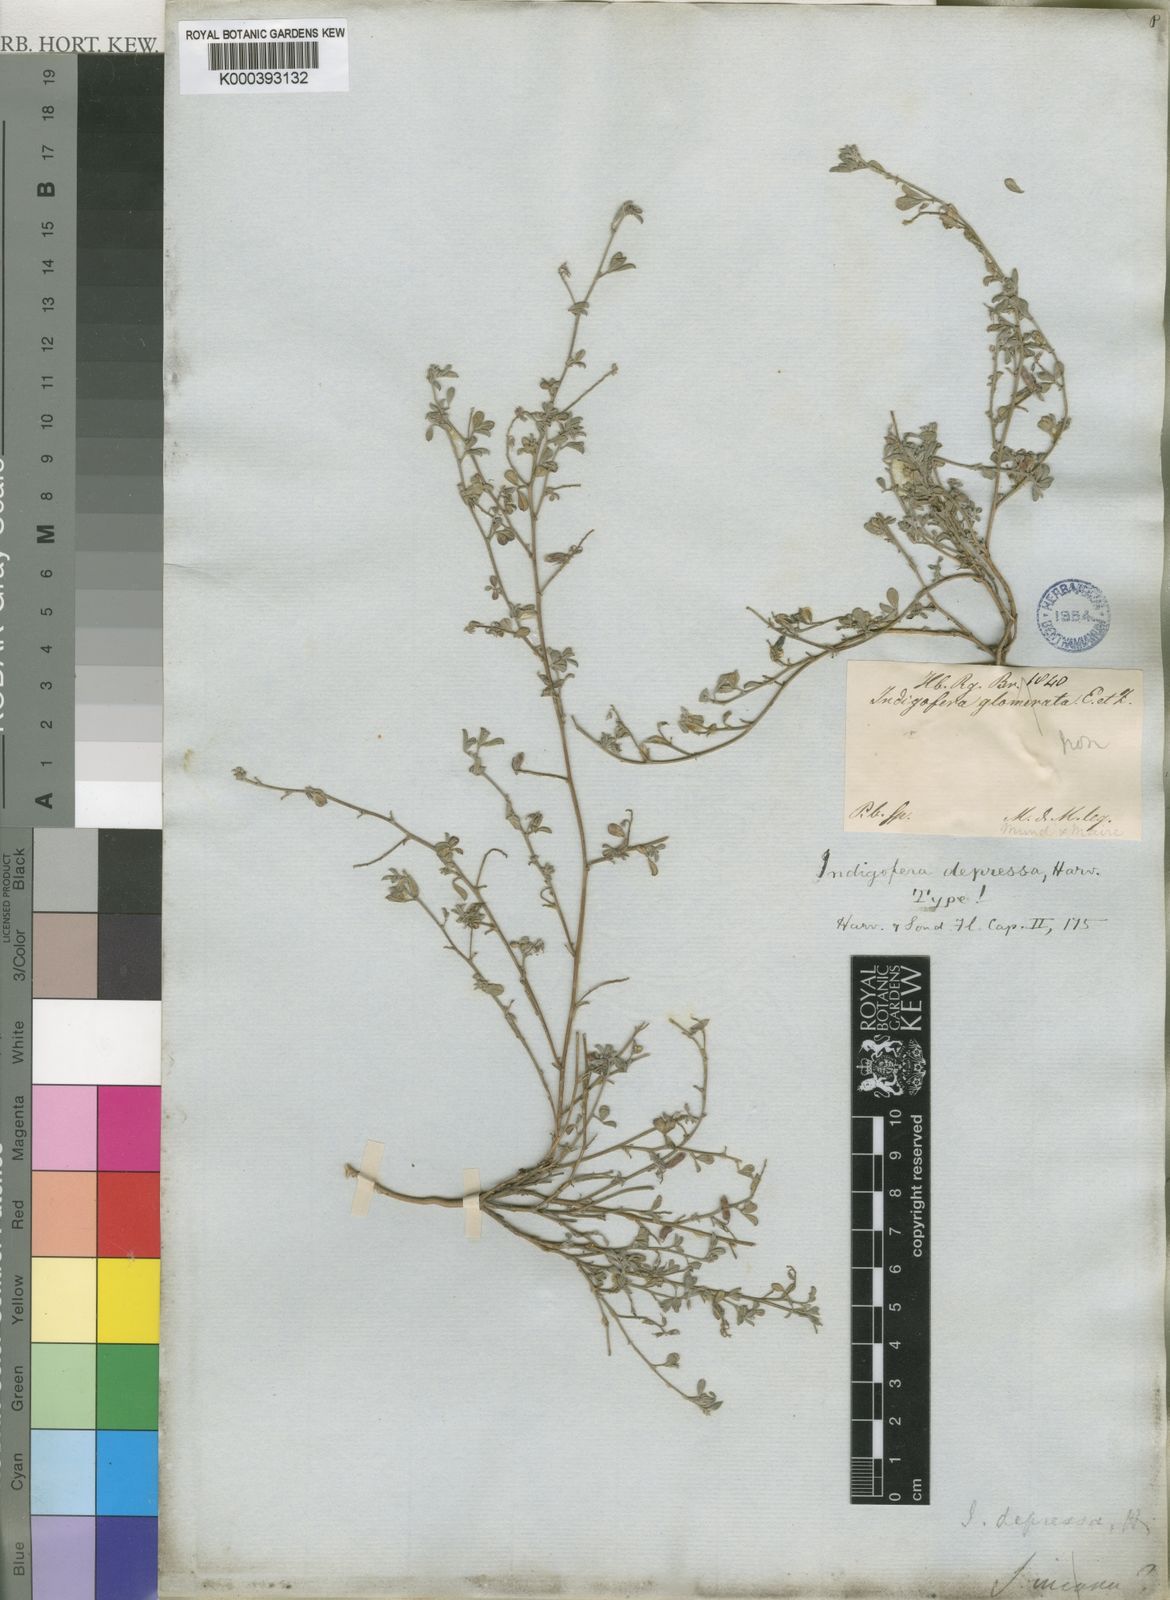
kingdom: Plantae
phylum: Tracheophyta
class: Magnoliopsida
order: Fabales
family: Fabaceae
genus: Indigofera
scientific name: Indigofera priorii
